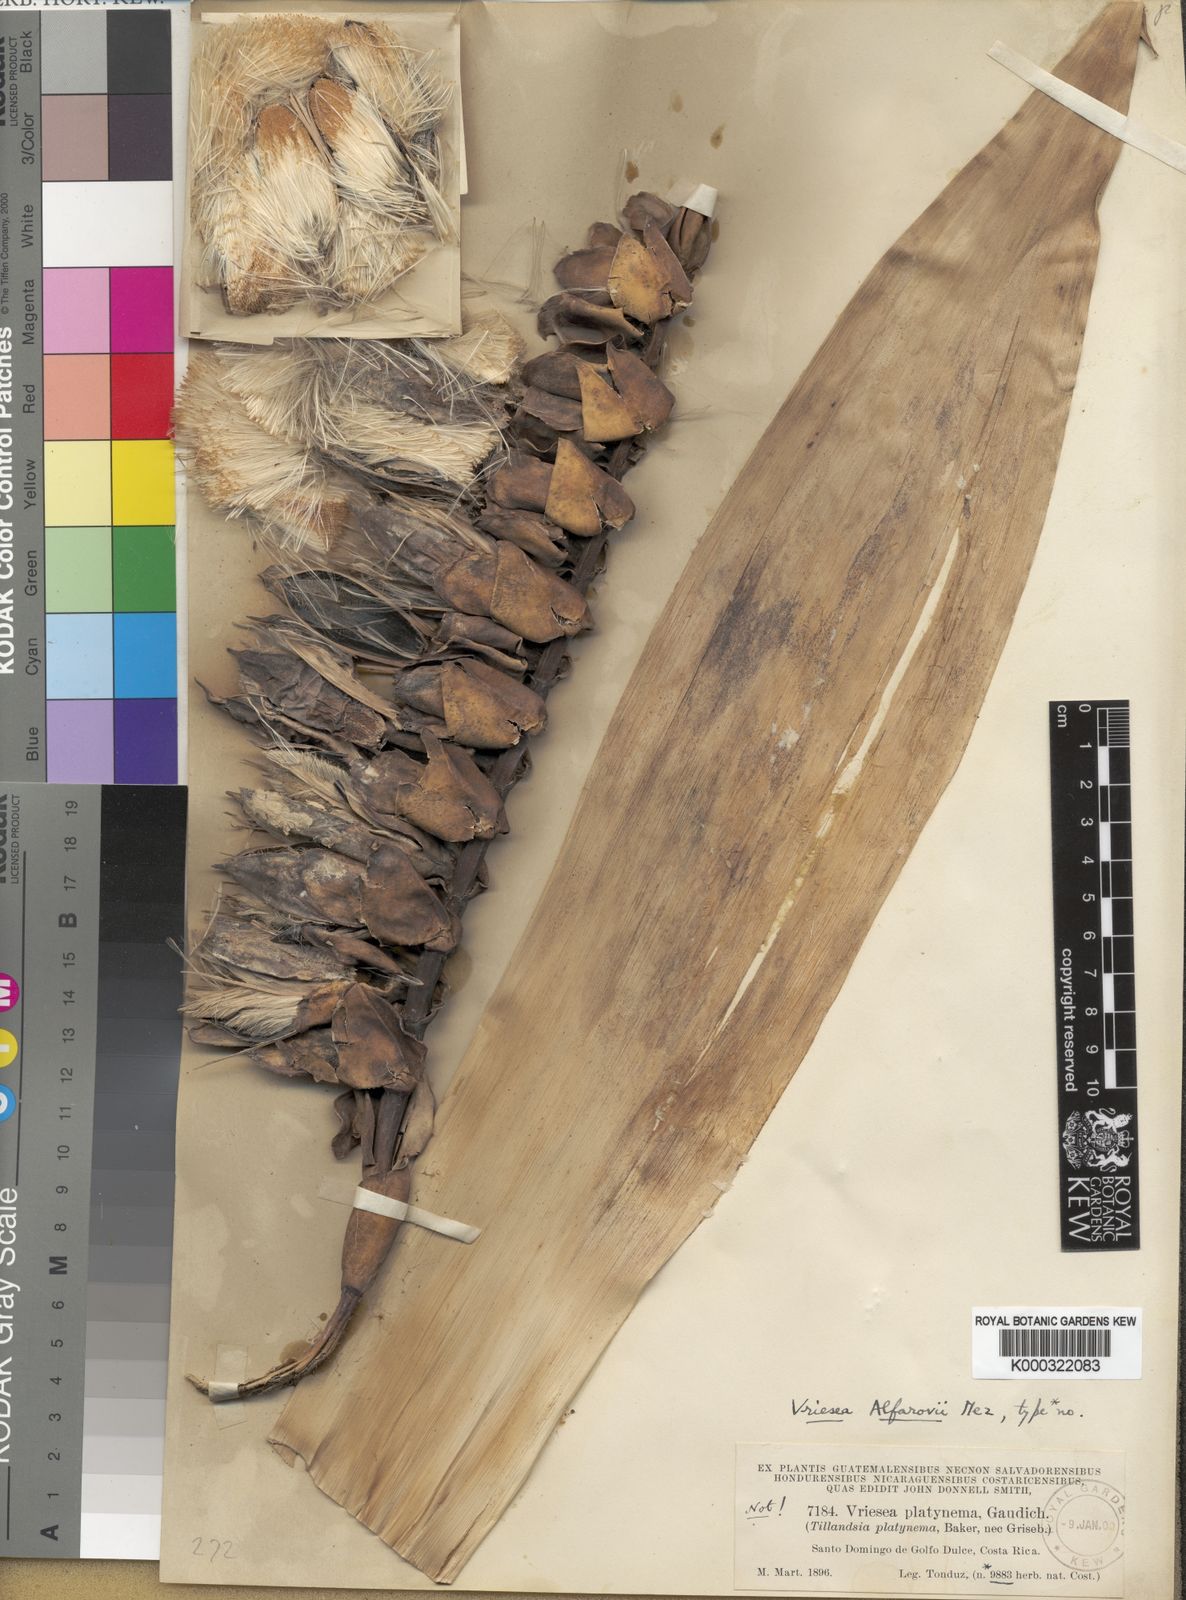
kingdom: Plantae
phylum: Tracheophyta
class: Liliopsida
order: Poales
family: Bromeliaceae
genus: Werauhia
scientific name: Werauhia sanguinolenta
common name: Bromeliad
